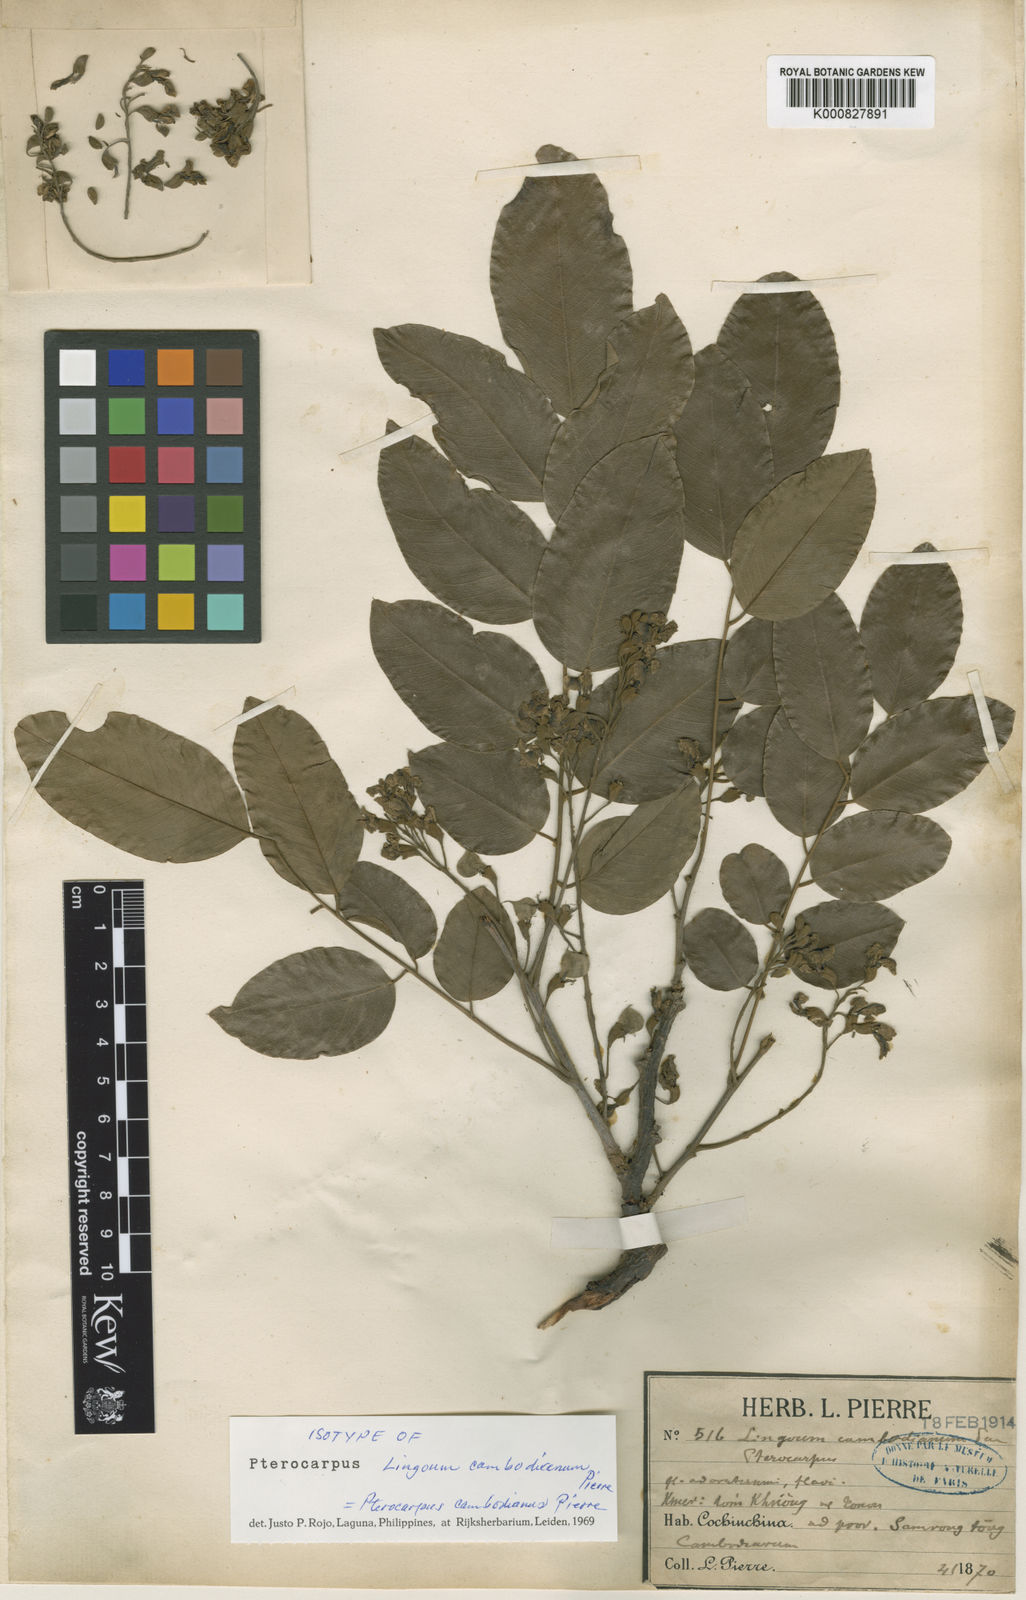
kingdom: Plantae
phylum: Tracheophyta
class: Magnoliopsida
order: Fabales
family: Fabaceae
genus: Pterocarpus
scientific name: Pterocarpus
